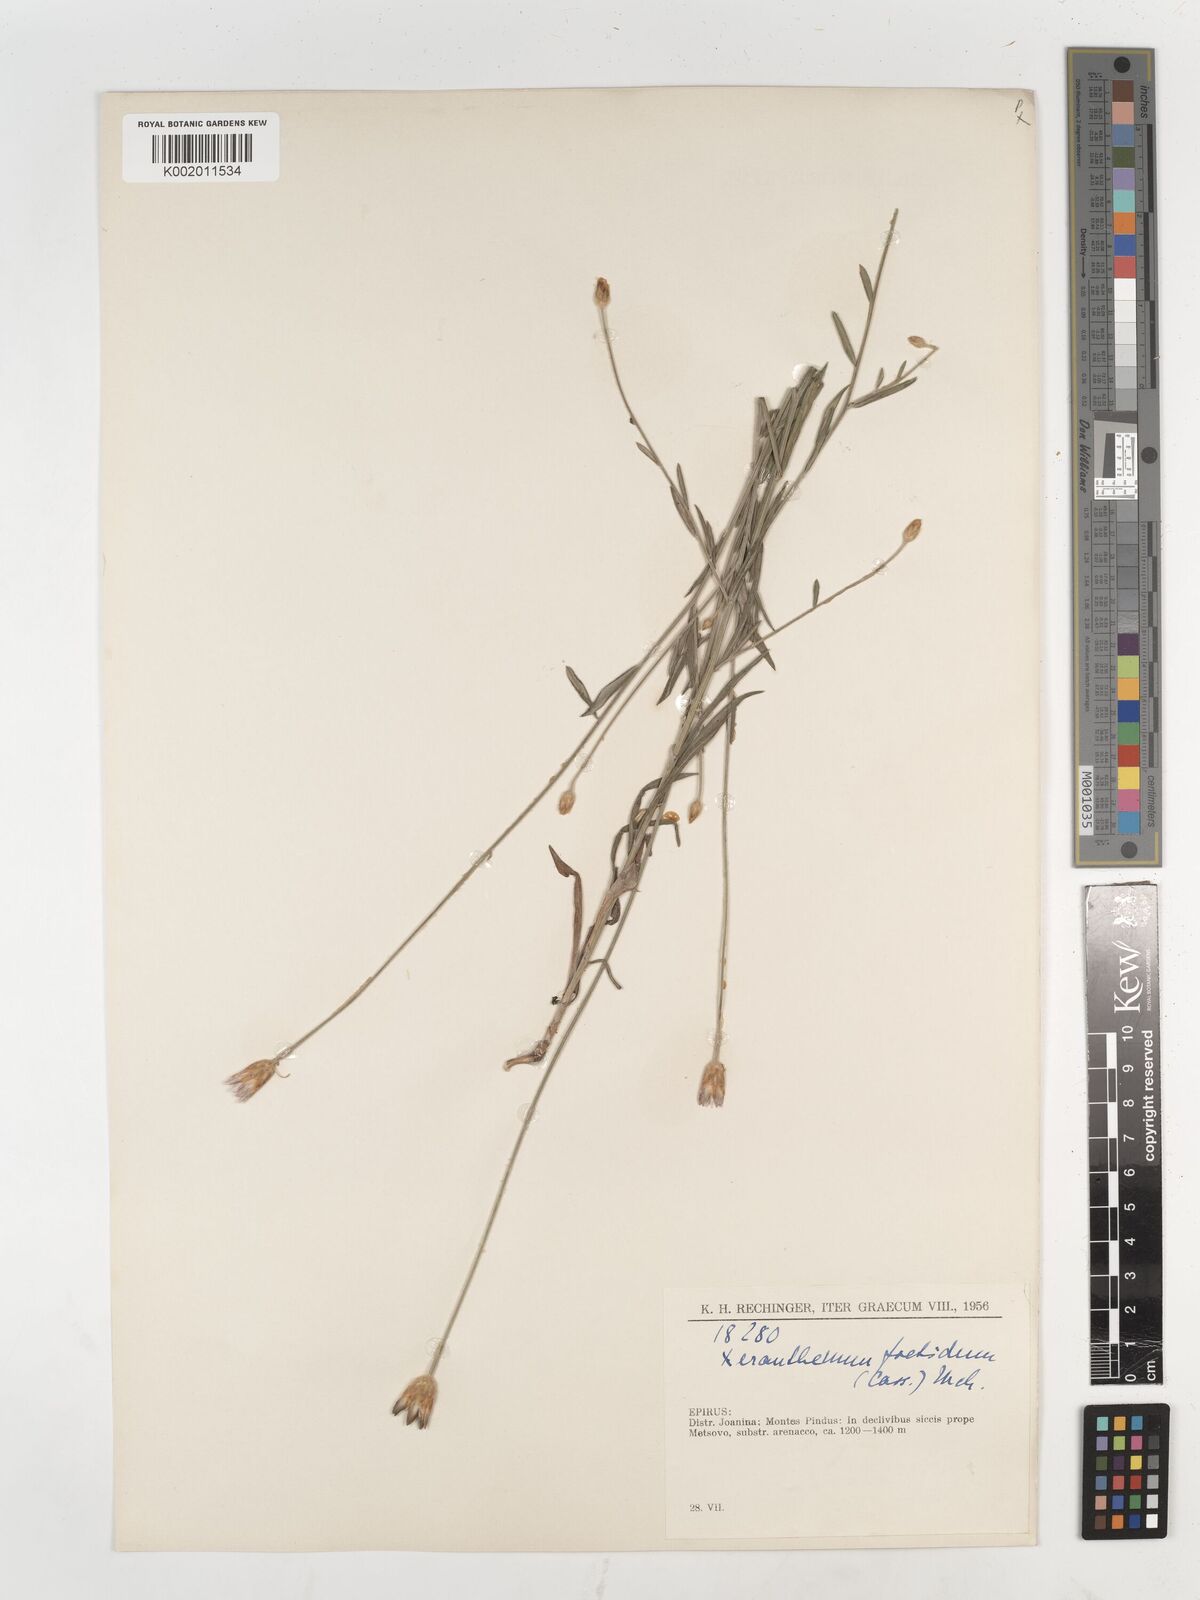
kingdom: Plantae
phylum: Tracheophyta
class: Magnoliopsida
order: Asterales
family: Asteraceae
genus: Xeranthemum
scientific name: Xeranthemum inapertum
